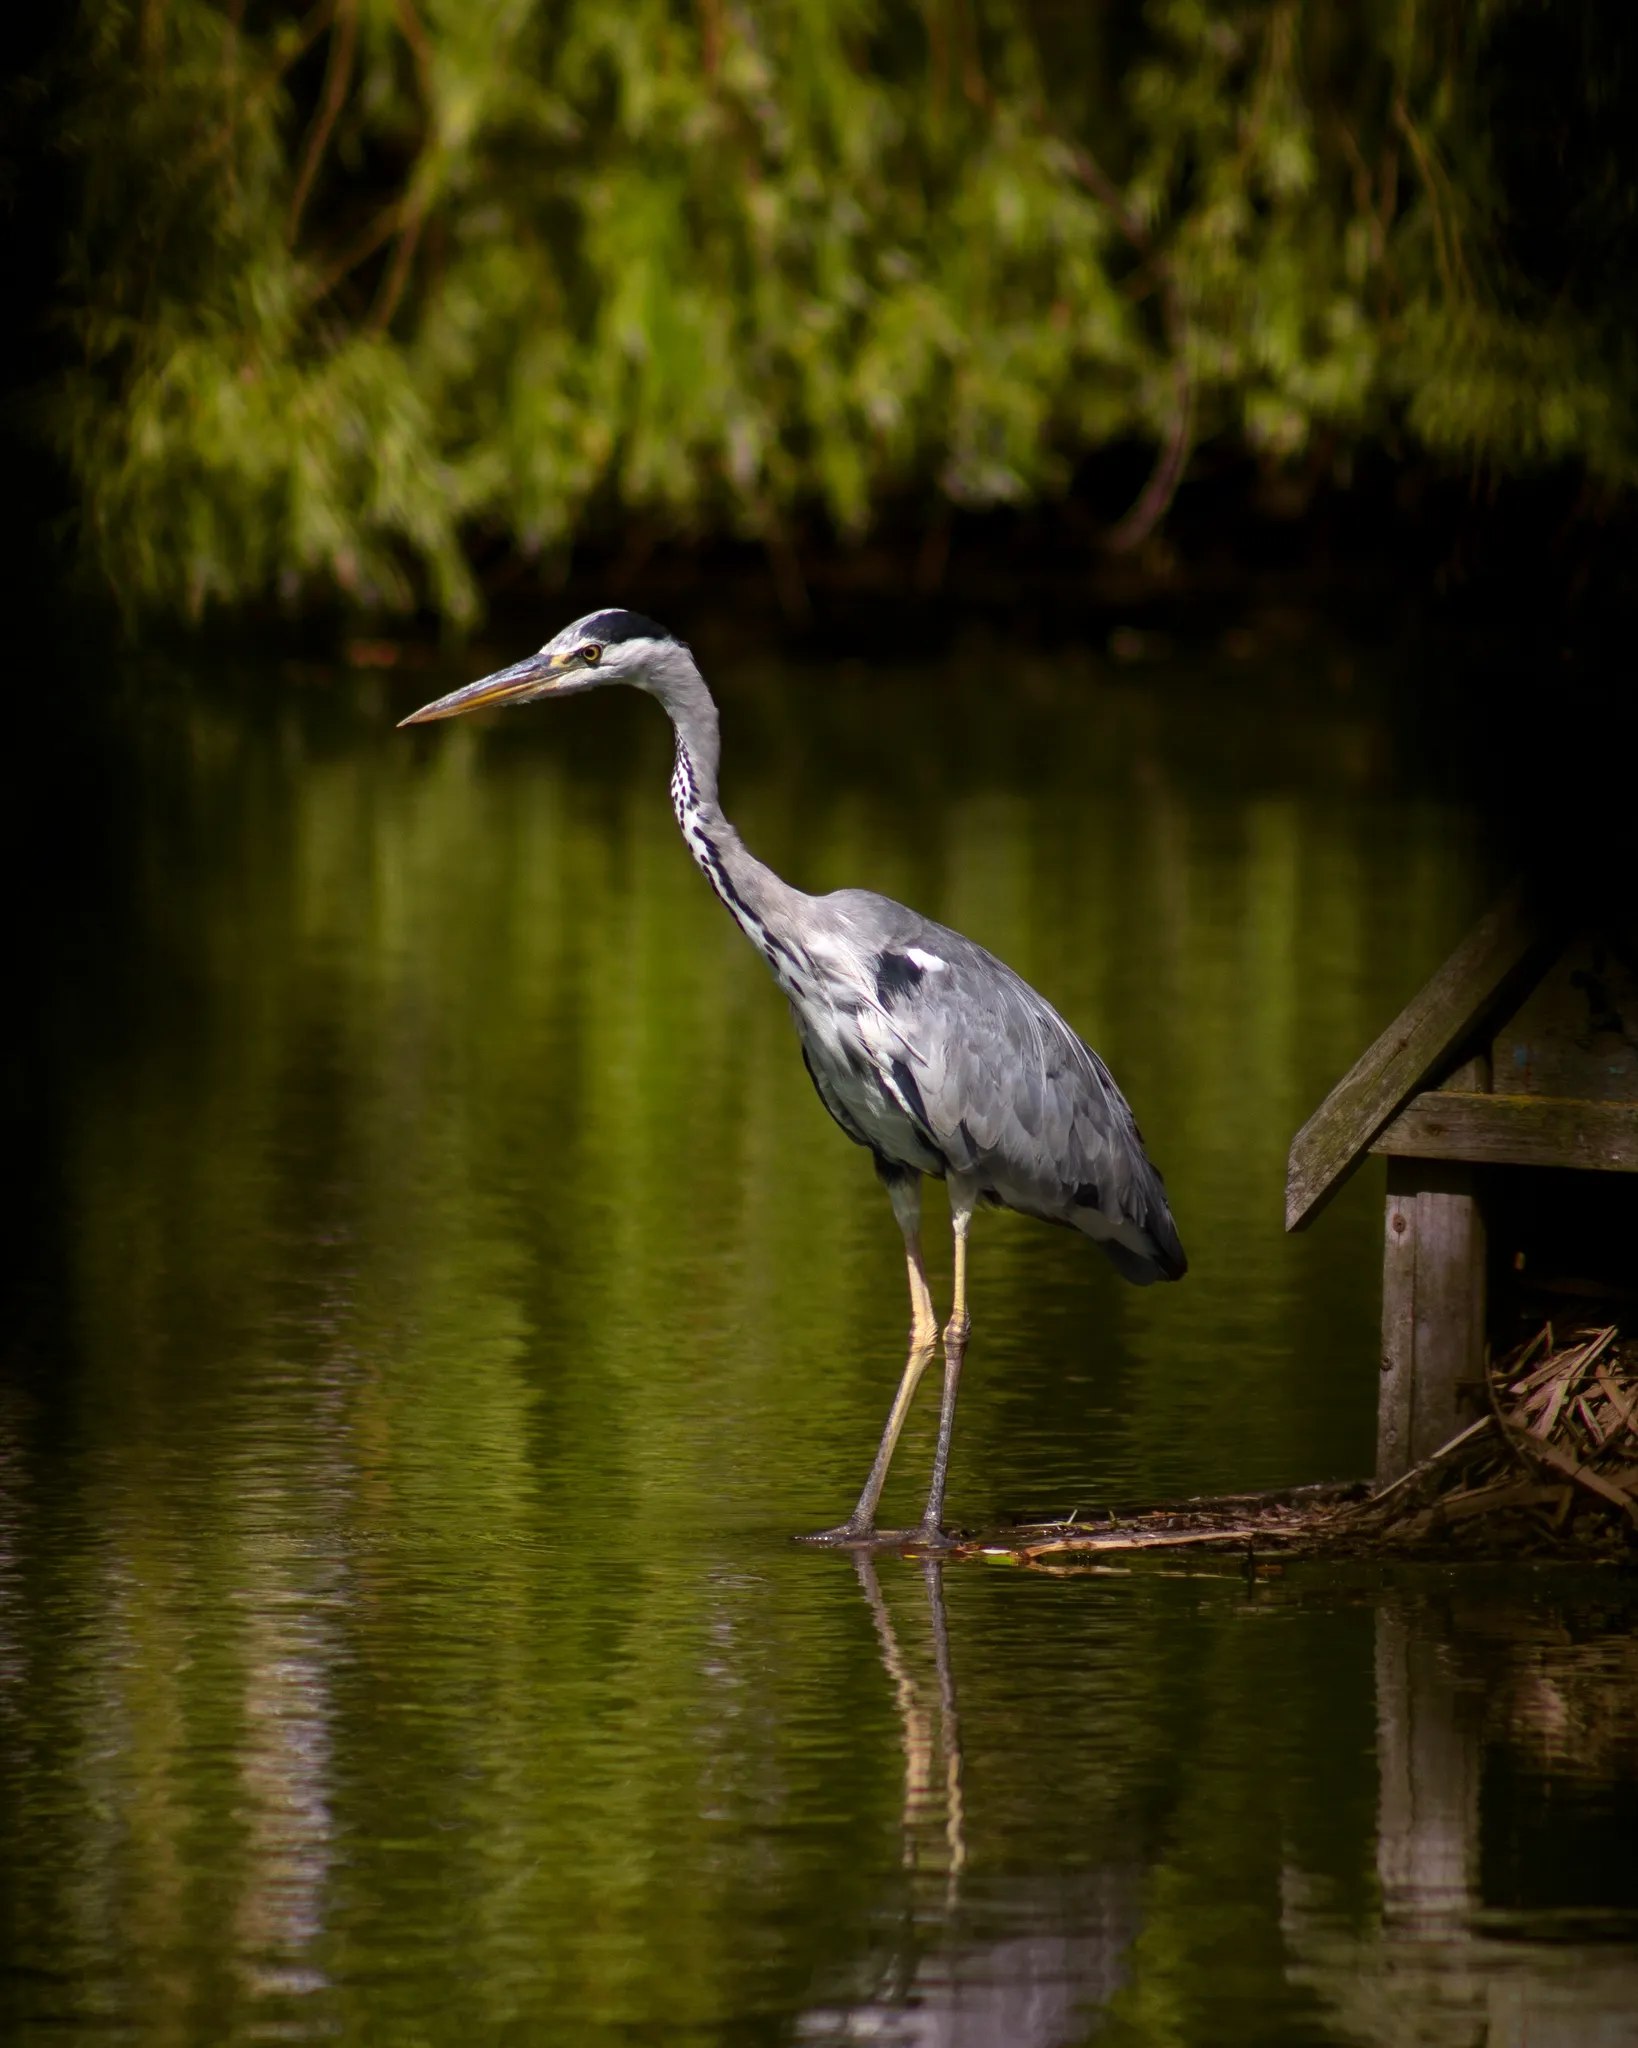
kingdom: Animalia
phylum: Chordata
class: Aves
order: Pelecaniformes
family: Ardeidae
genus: Ardea
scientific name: Ardea cinerea
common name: Fiskehejre
